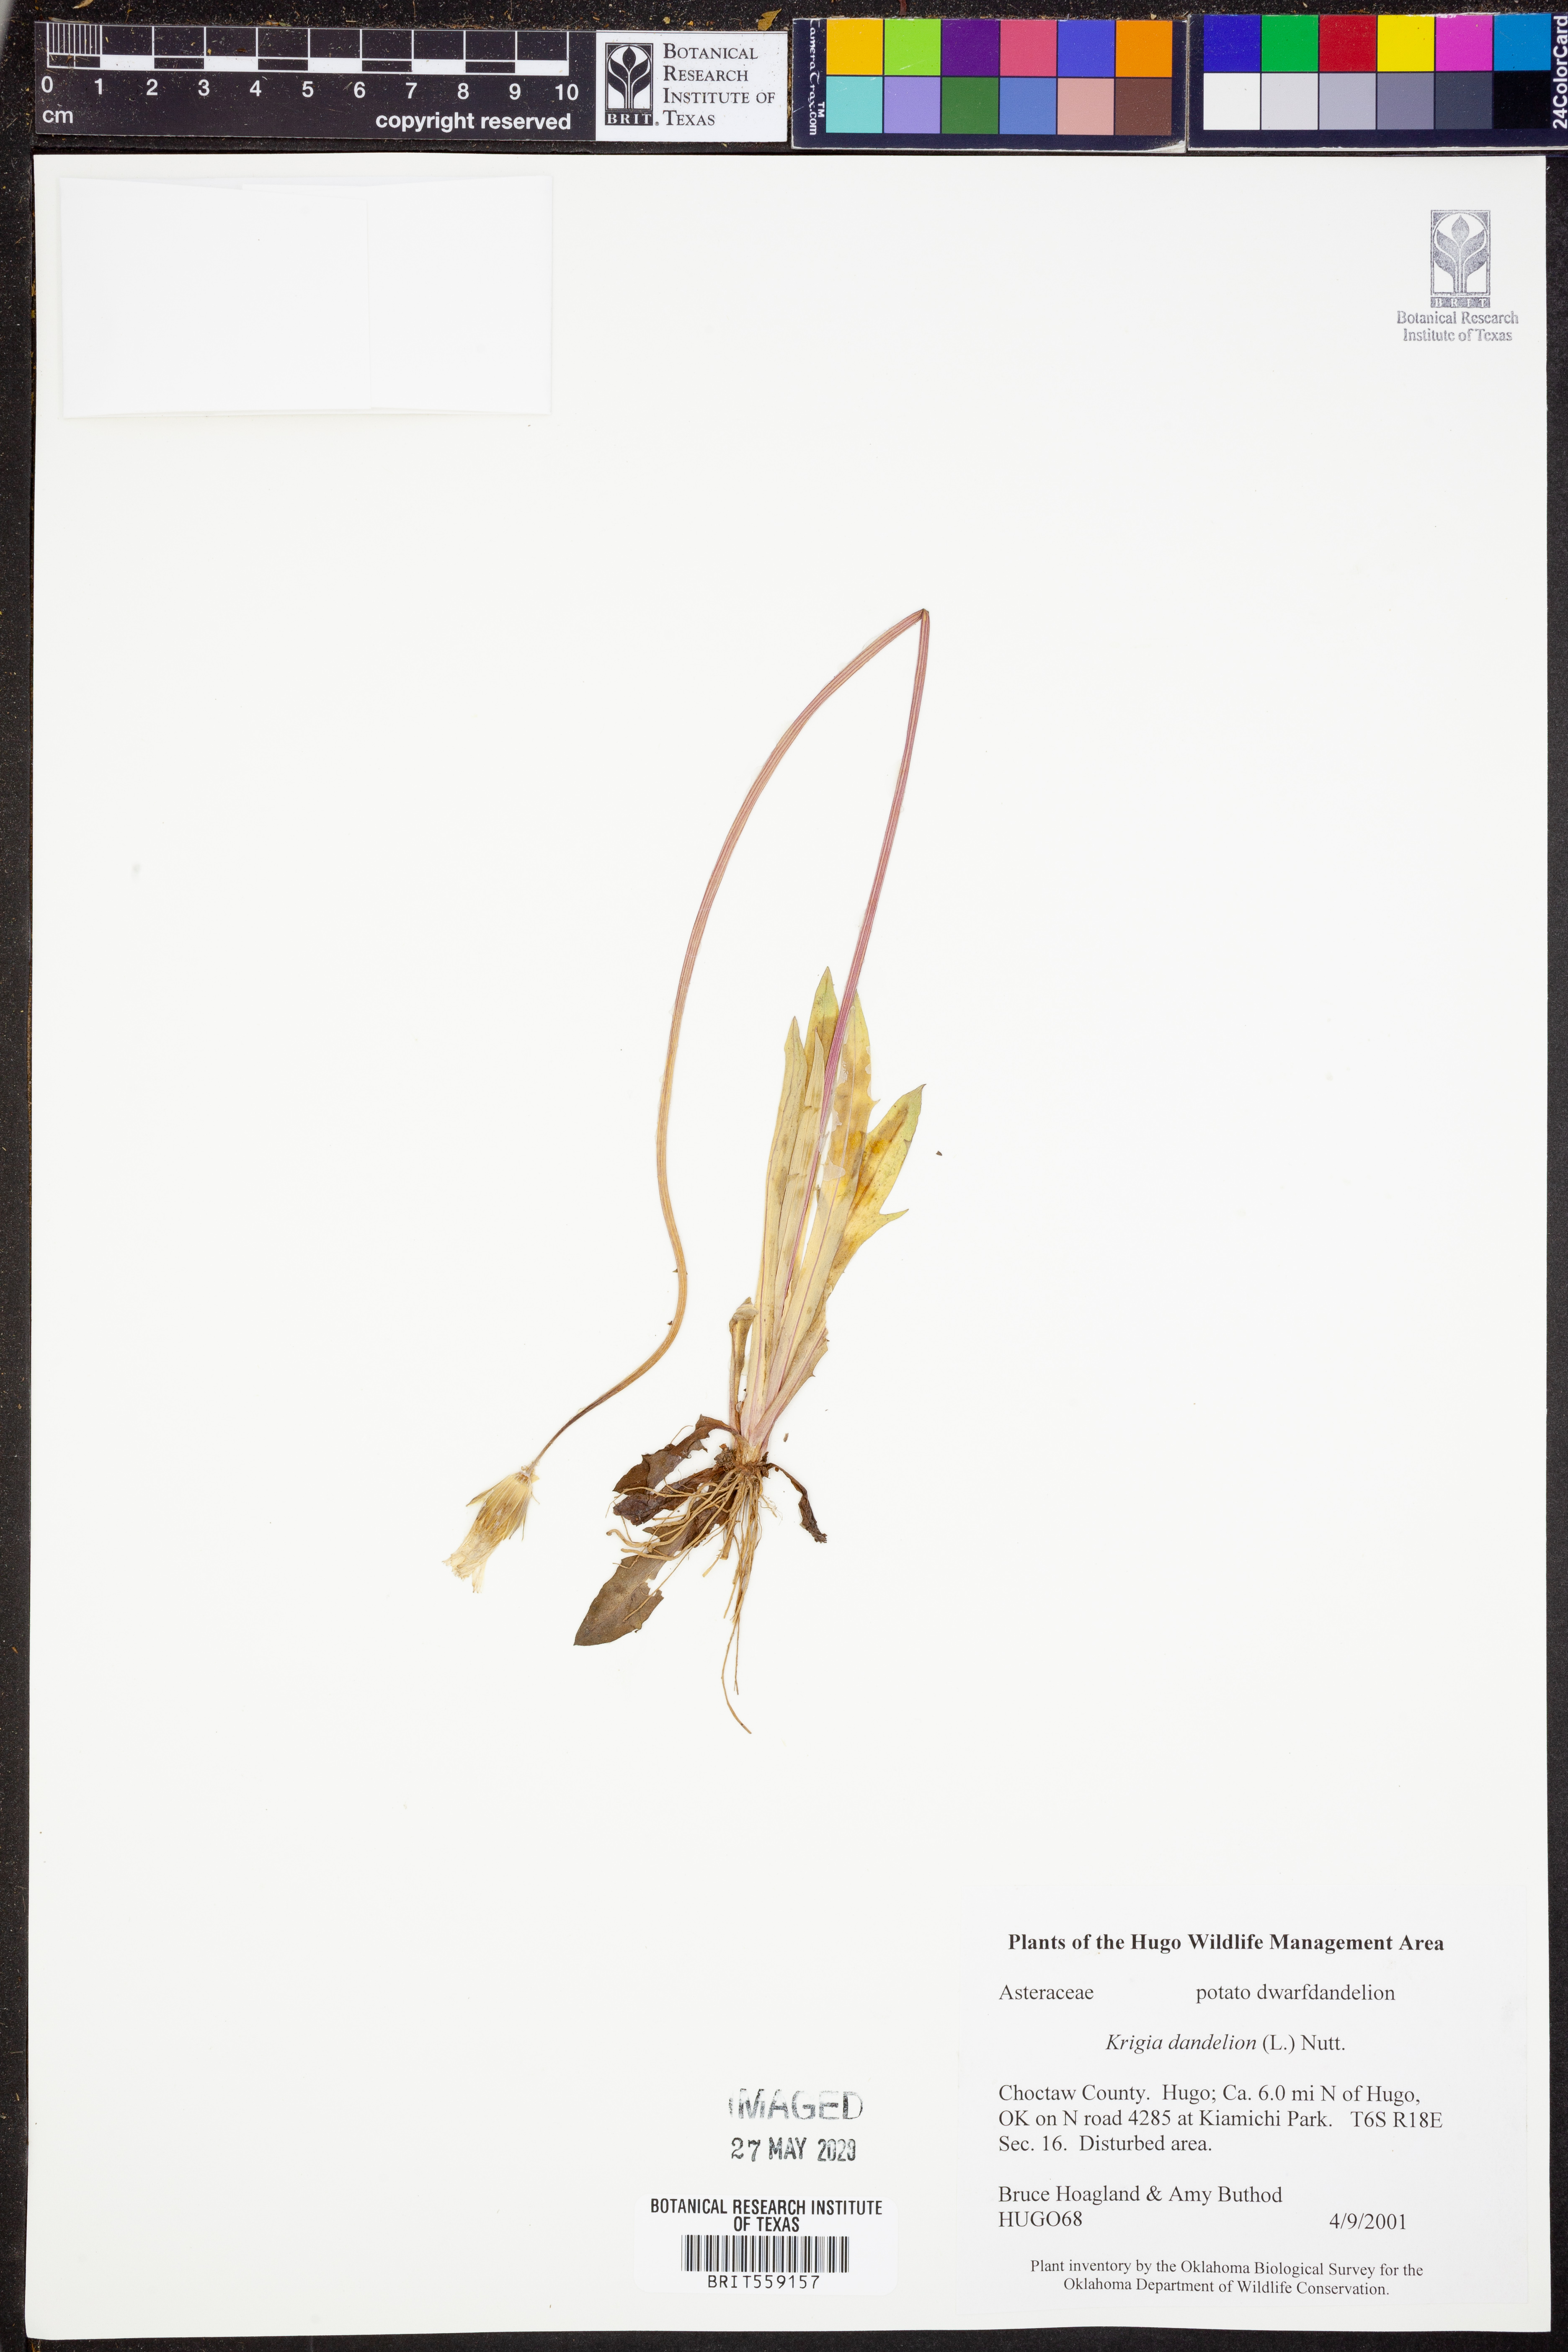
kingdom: Plantae
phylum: Tracheophyta
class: Magnoliopsida
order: Asterales
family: Asteraceae
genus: Krigia
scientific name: Krigia dandelion
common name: Colonial dwarf-dandelion
